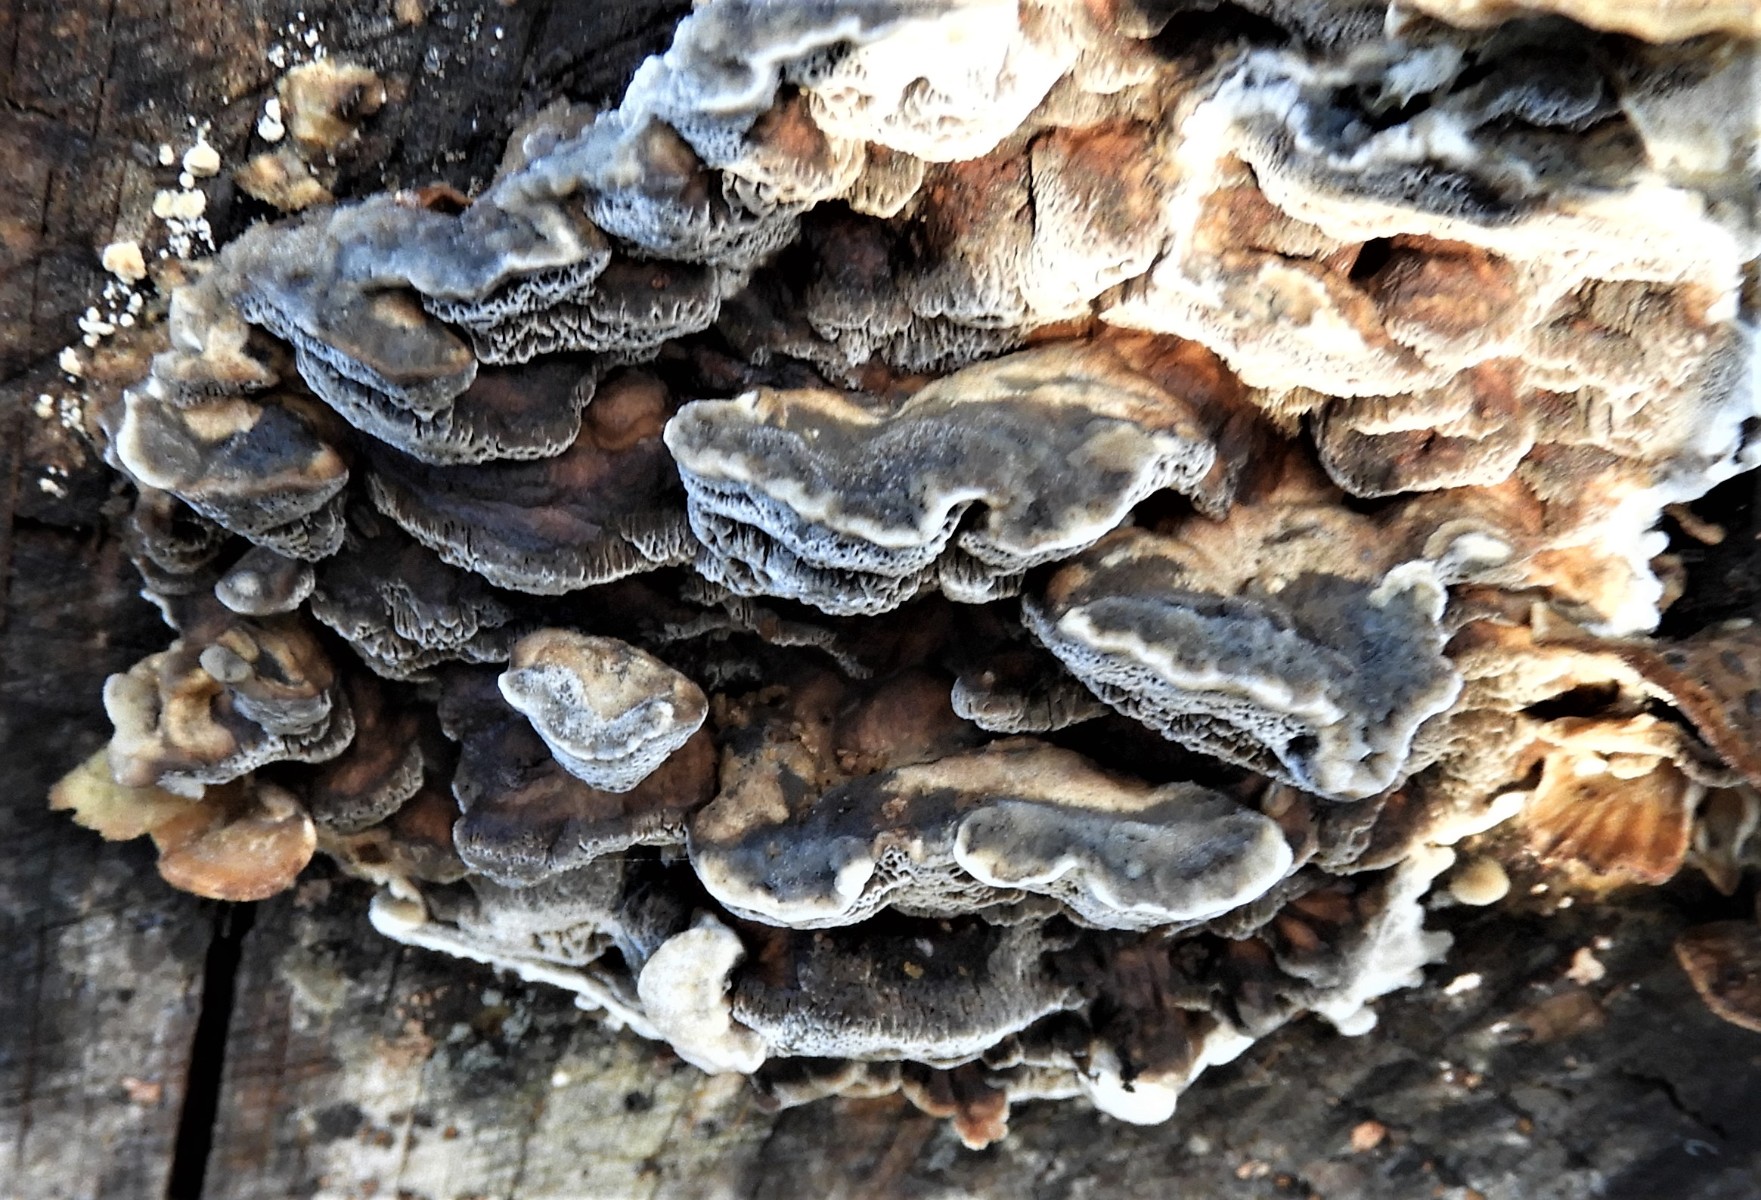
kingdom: Fungi
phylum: Basidiomycota
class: Agaricomycetes
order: Polyporales
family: Phanerochaetaceae
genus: Bjerkandera
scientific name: Bjerkandera adusta
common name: sveden sodporesvamp
